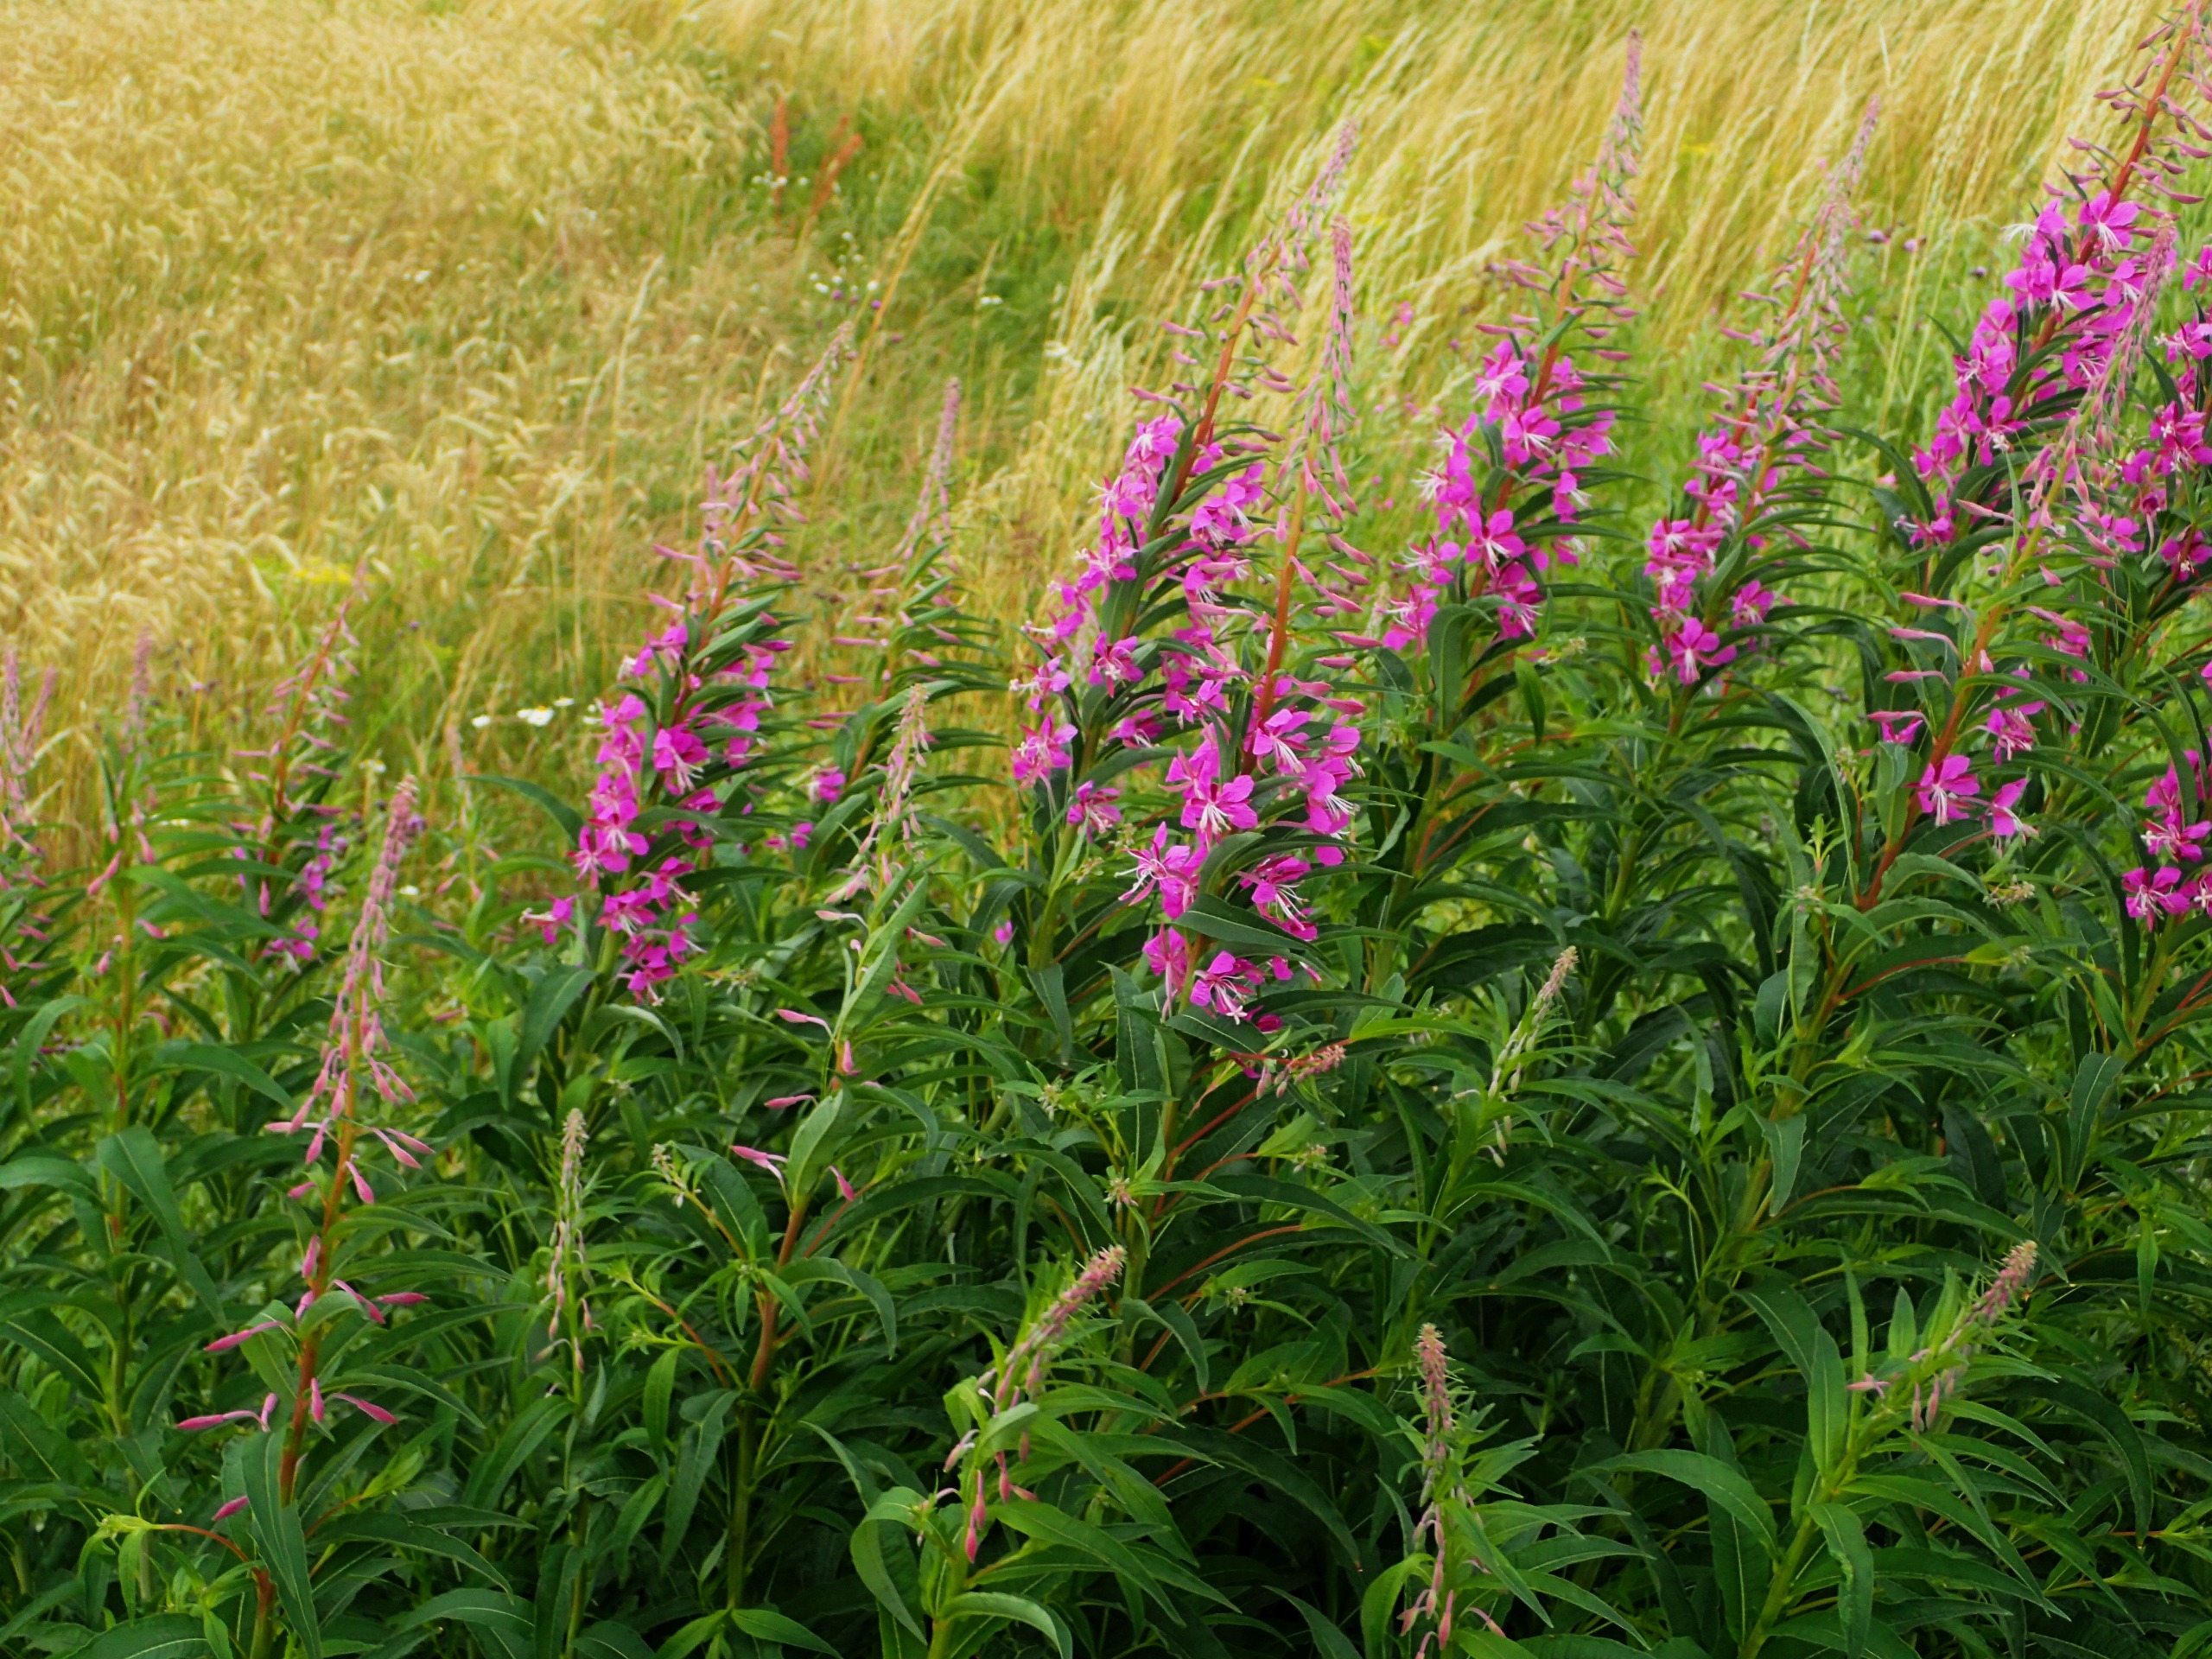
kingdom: Plantae
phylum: Tracheophyta
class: Magnoliopsida
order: Myrtales
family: Onagraceae
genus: Chamaenerion
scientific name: Chamaenerion angustifolium
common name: Gederams
